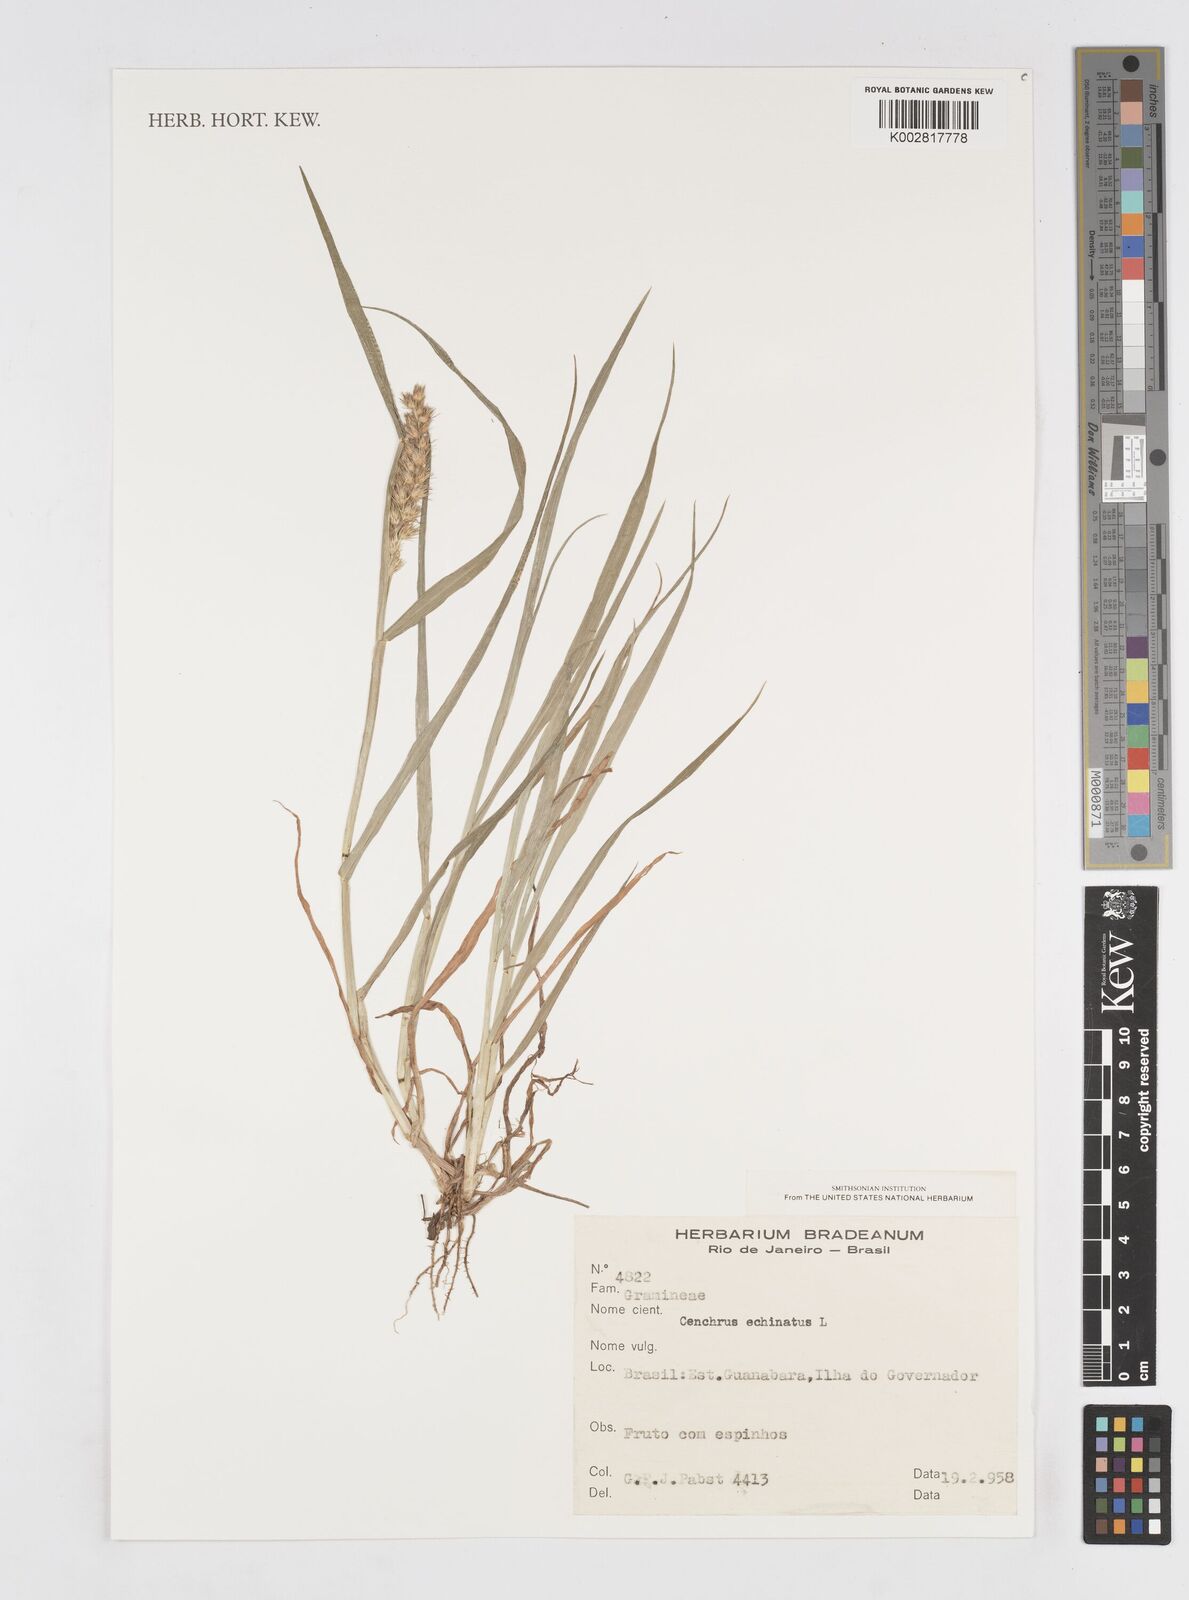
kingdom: Plantae
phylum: Tracheophyta
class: Liliopsida
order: Poales
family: Poaceae
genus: Cenchrus
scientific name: Cenchrus
